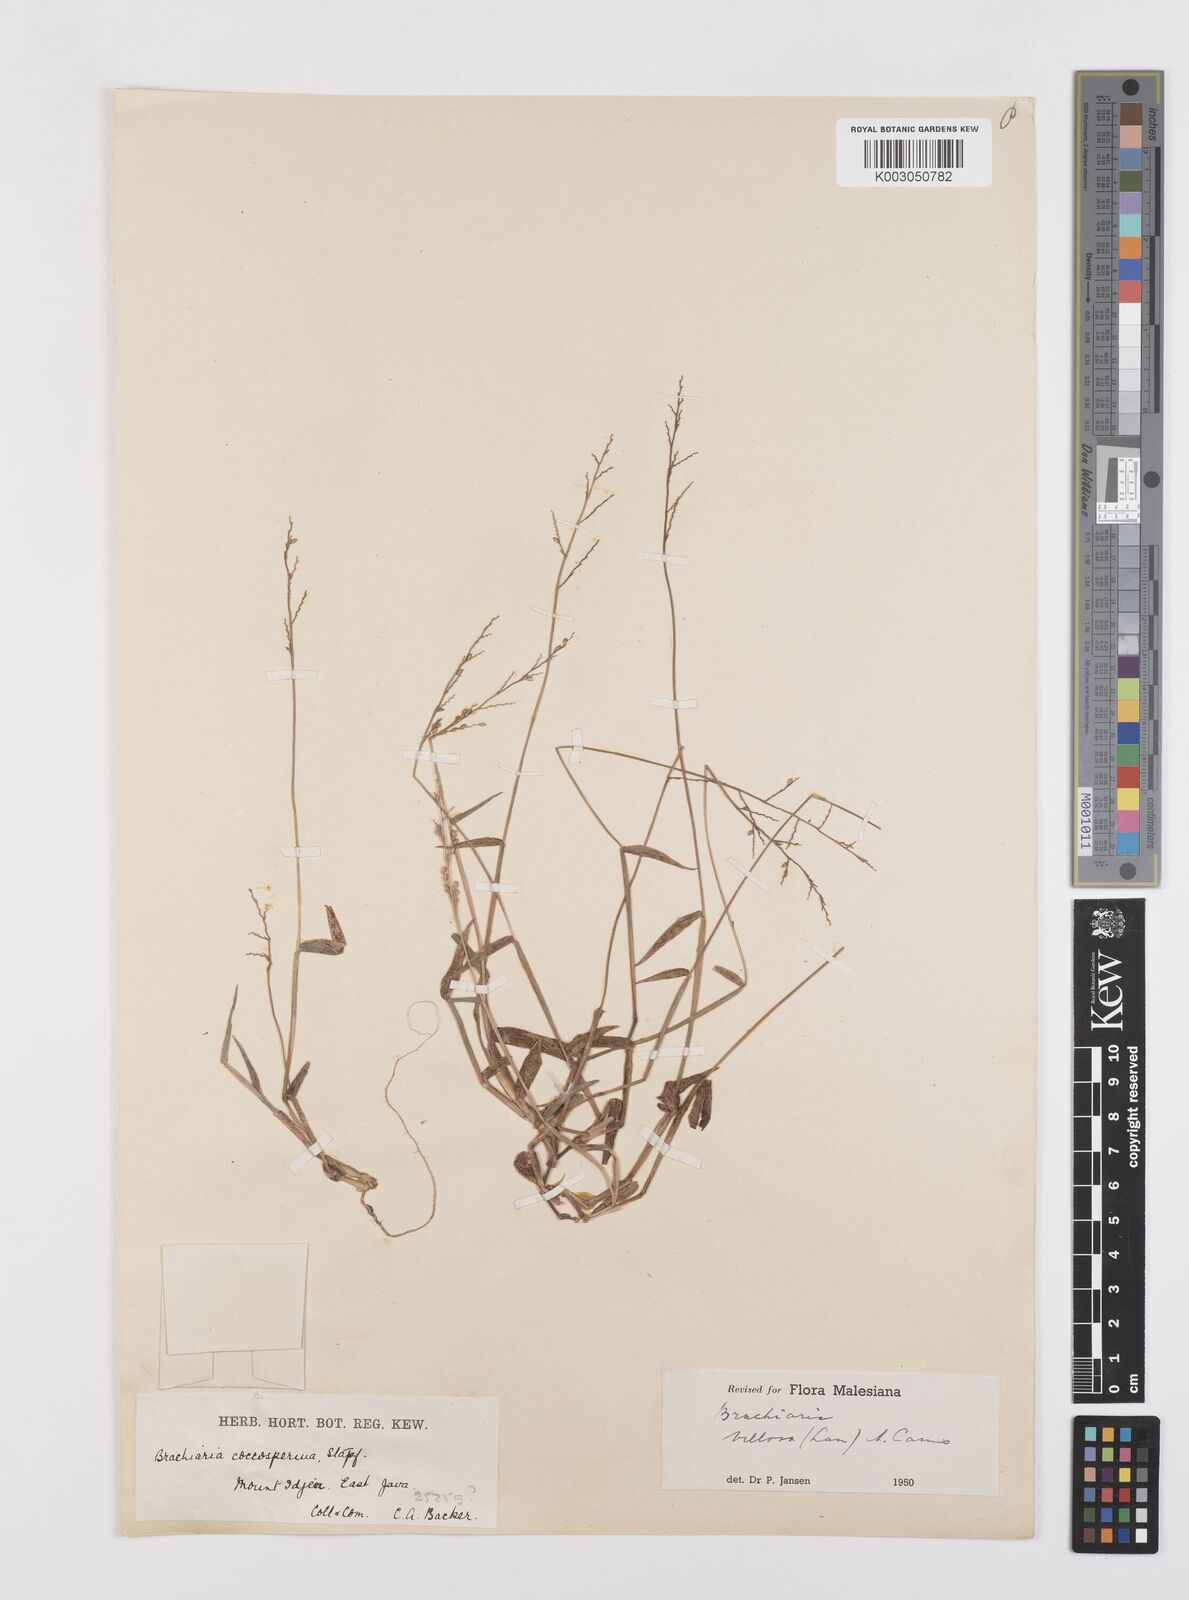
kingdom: Plantae
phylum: Tracheophyta
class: Liliopsida
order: Poales
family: Poaceae
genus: Urochloa
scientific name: Urochloa villosa
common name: Hairy signalgrass
